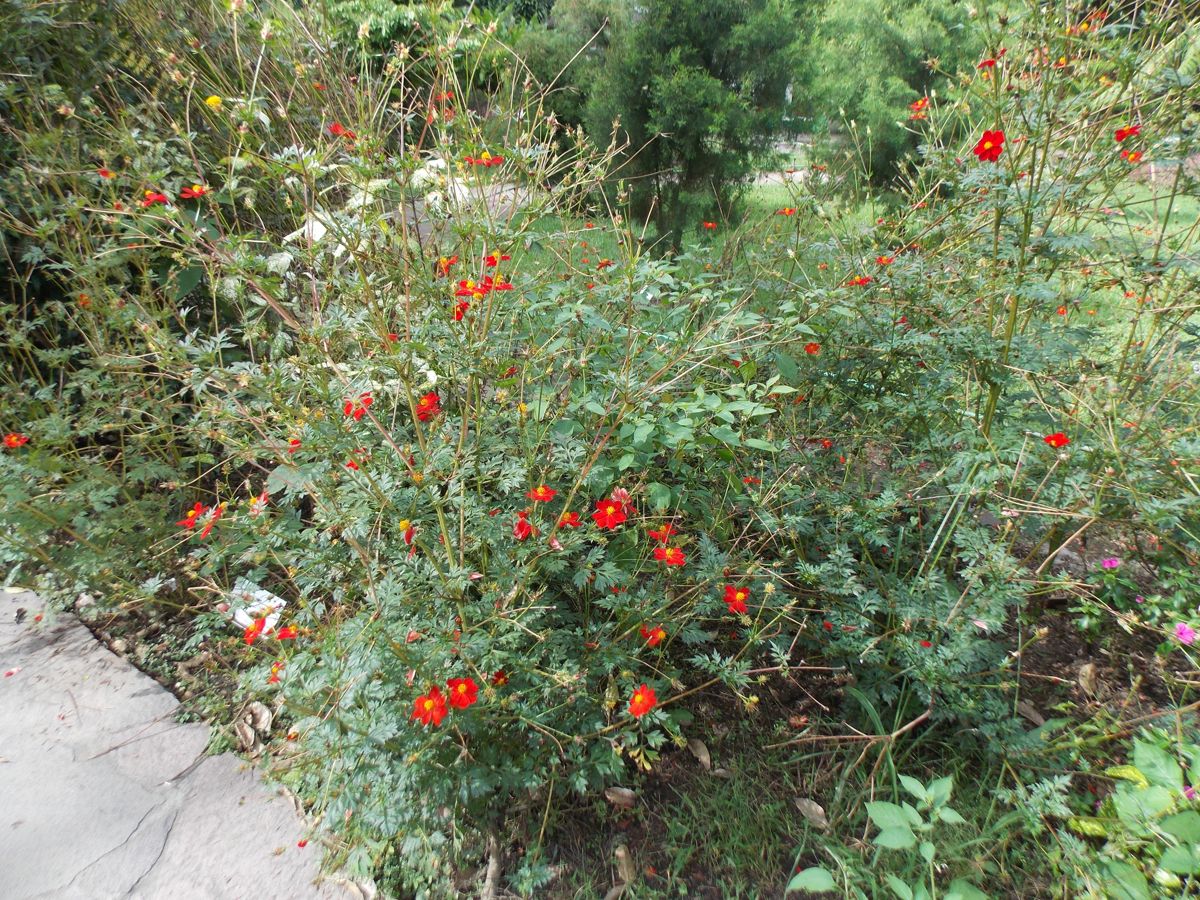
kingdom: Plantae
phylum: Tracheophyta
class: Magnoliopsida
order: Asterales
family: Asteraceae
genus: Cosmos
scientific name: Cosmos diversifolius
